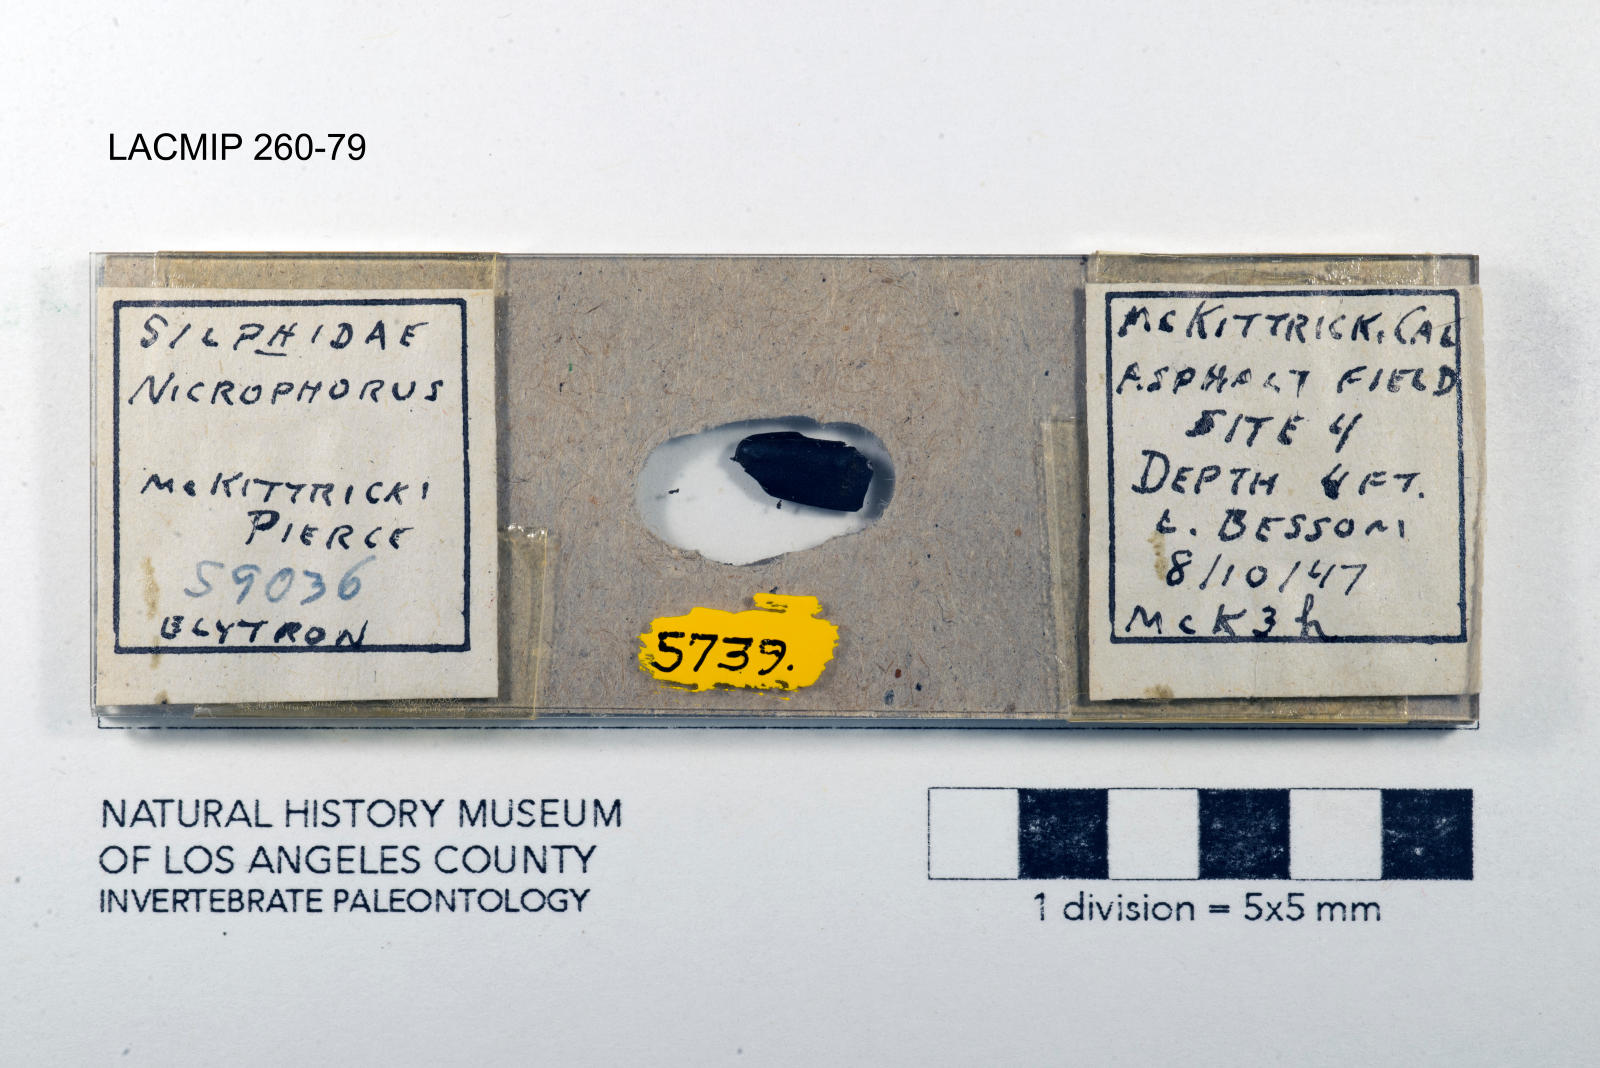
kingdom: Animalia
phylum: Arthropoda
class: Insecta
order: Coleoptera
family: Staphylinidae
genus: Nicrophorus
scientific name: Nicrophorus marginatus
